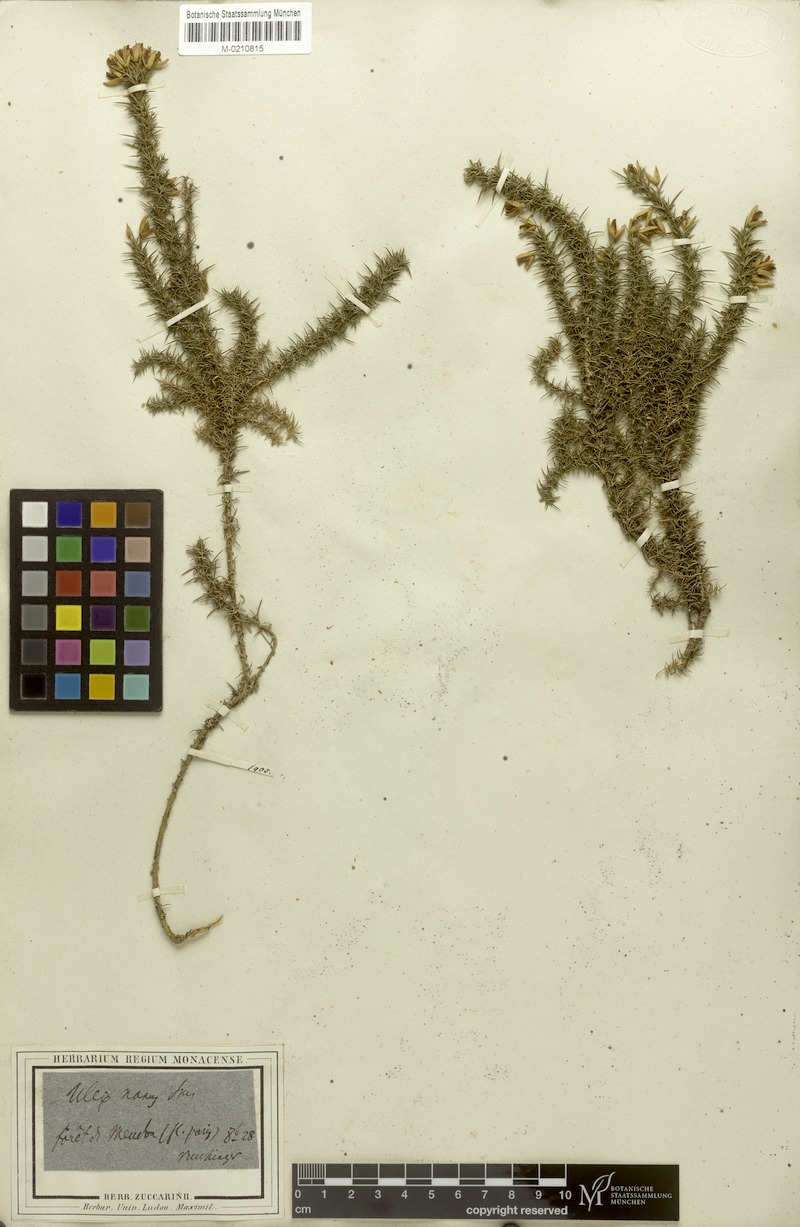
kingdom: Plantae
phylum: Tracheophyta
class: Magnoliopsida
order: Fabales
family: Fabaceae
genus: Ulex
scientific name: Ulex minor
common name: Dwarf gorse
